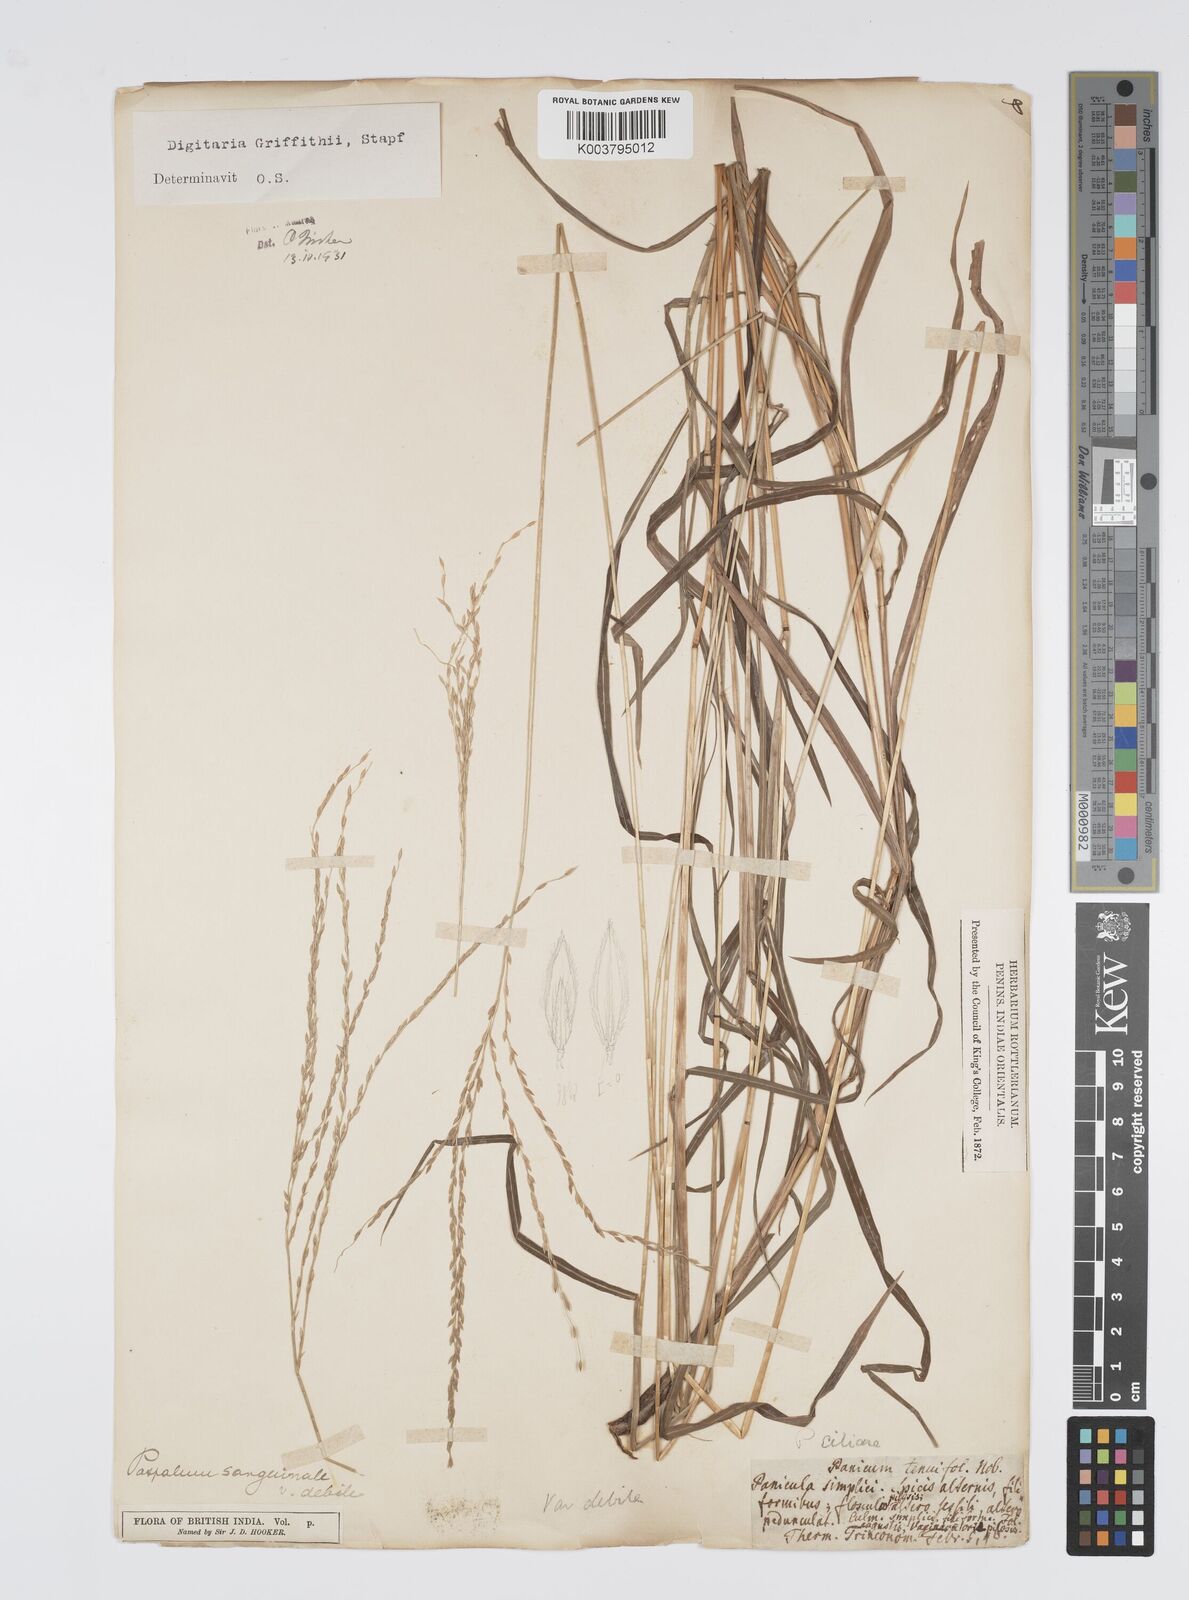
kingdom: Plantae
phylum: Tracheophyta
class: Liliopsida
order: Poales
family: Poaceae
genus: Digitaria
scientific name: Digitaria griffithii
